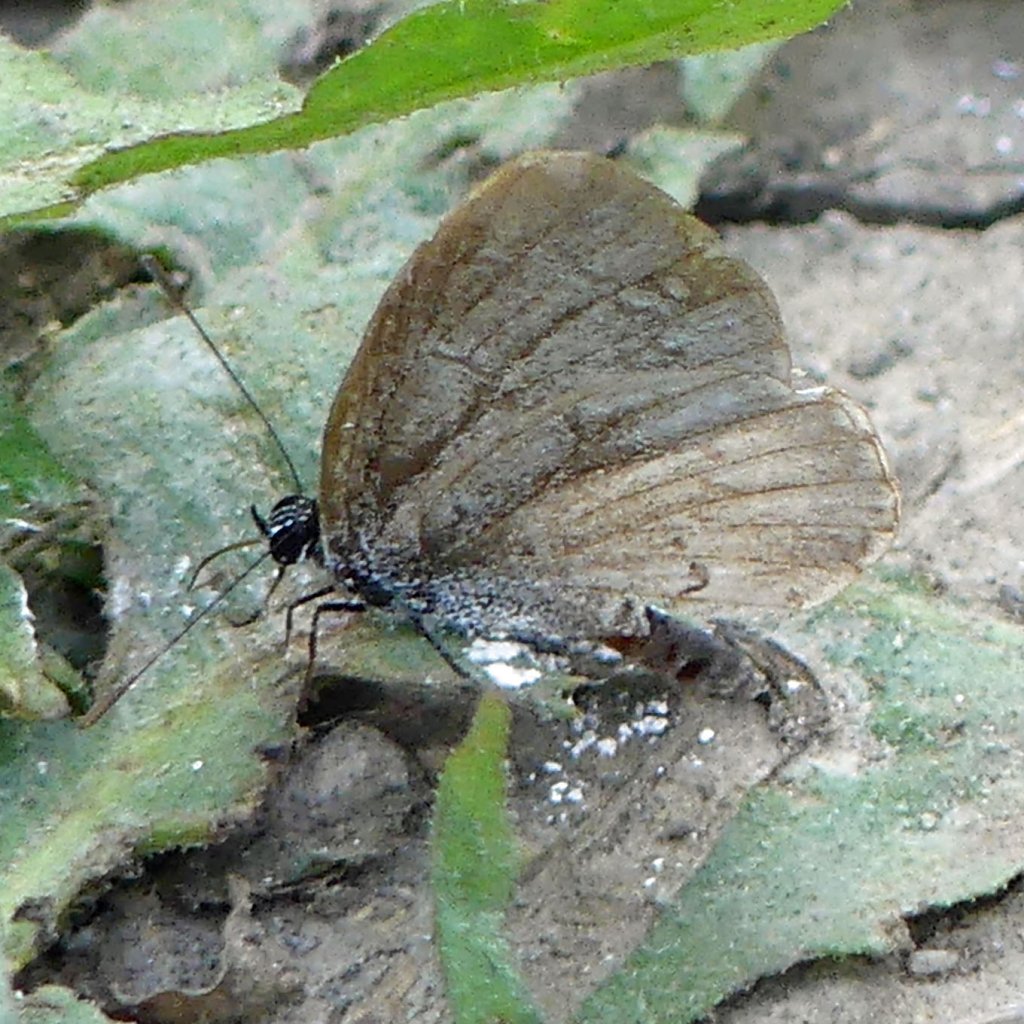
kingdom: Animalia
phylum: Arthropoda
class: Insecta
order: Lepidoptera
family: Lycaenidae
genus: Celastrina
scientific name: Celastrina
